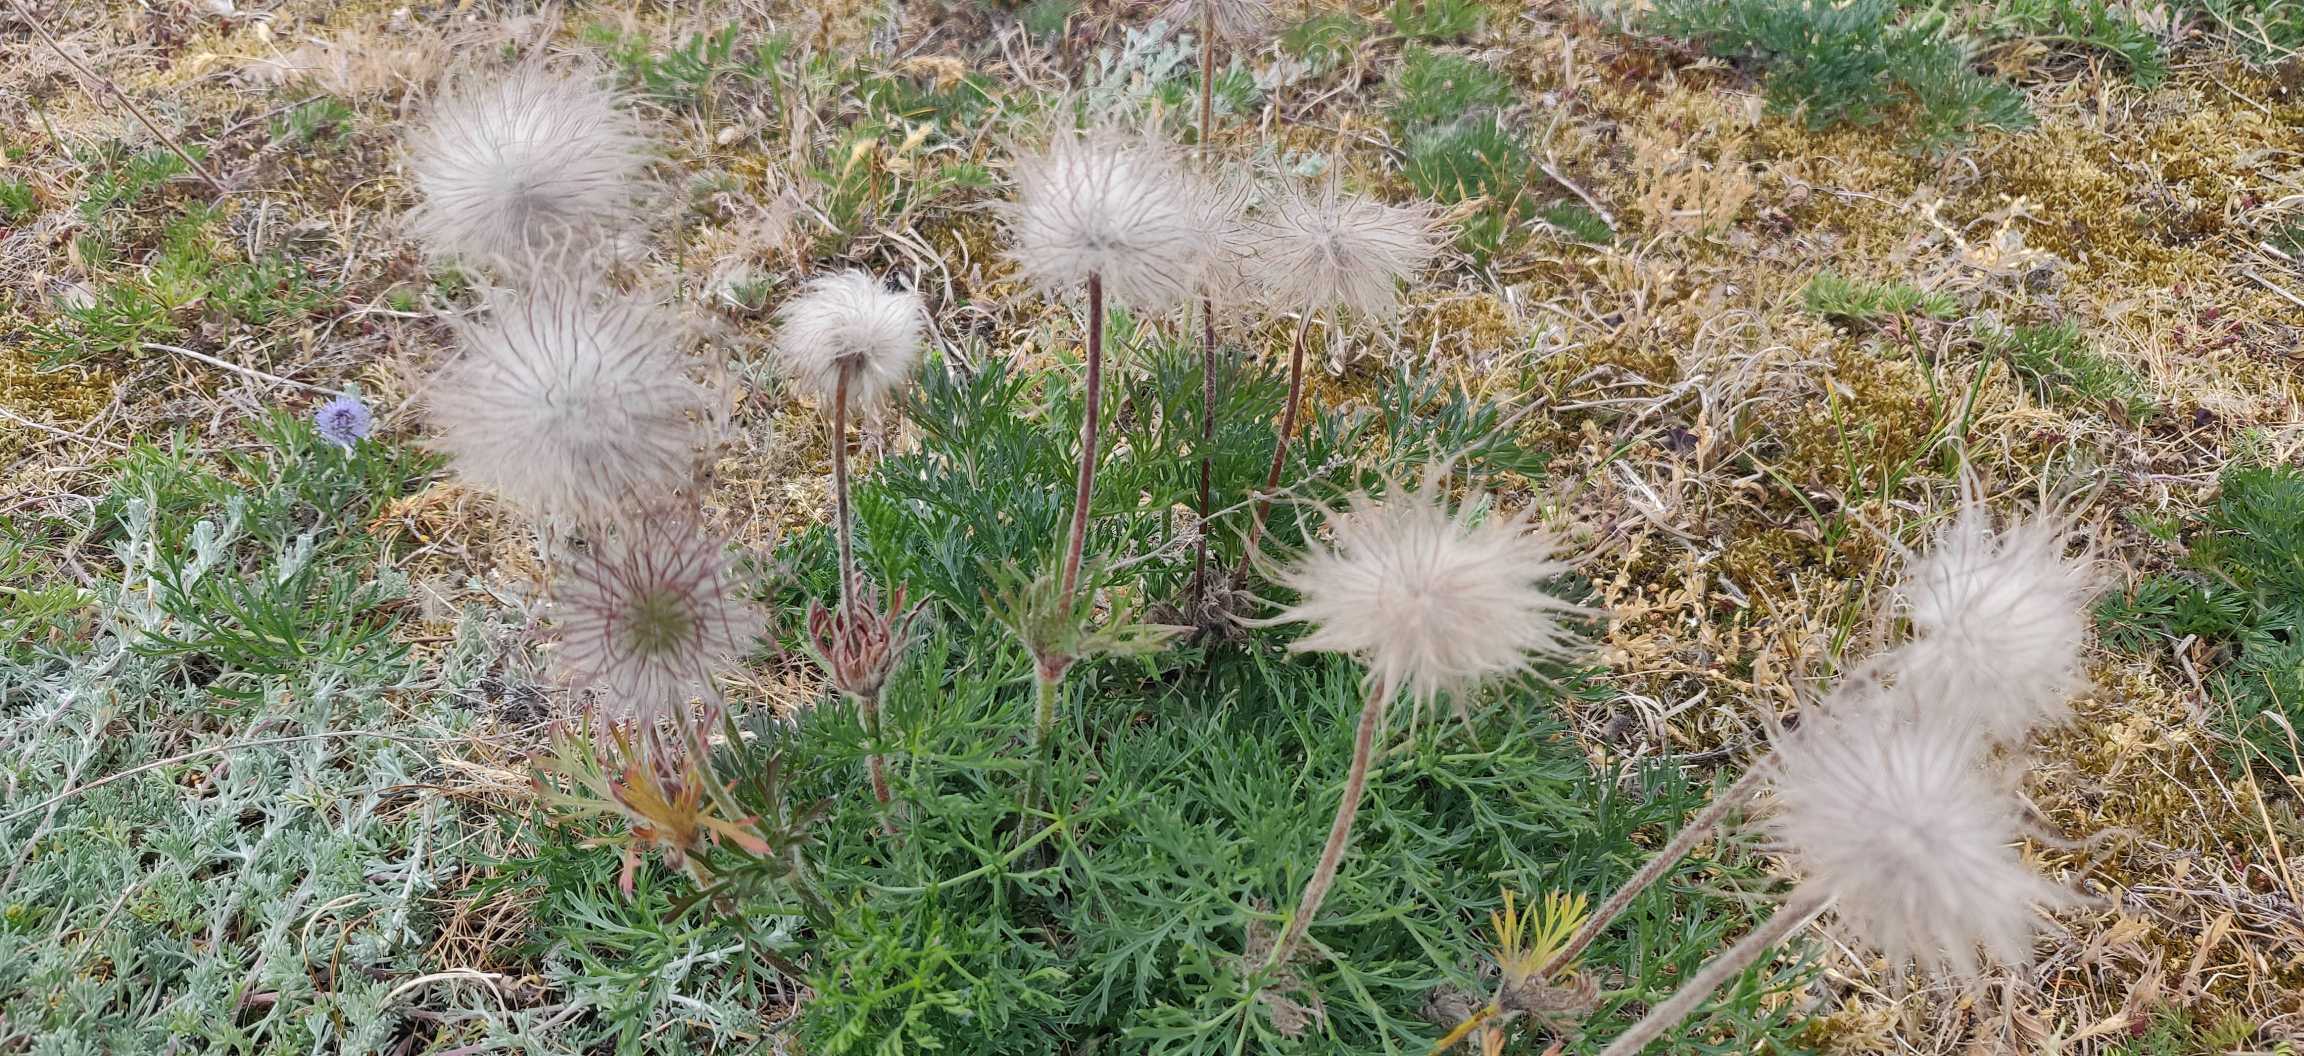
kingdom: Plantae
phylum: Tracheophyta
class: Magnoliopsida
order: Ranunculales
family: Ranunculaceae
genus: Pulsatilla
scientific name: Pulsatilla pratensis
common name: Nikkende kobjælde
